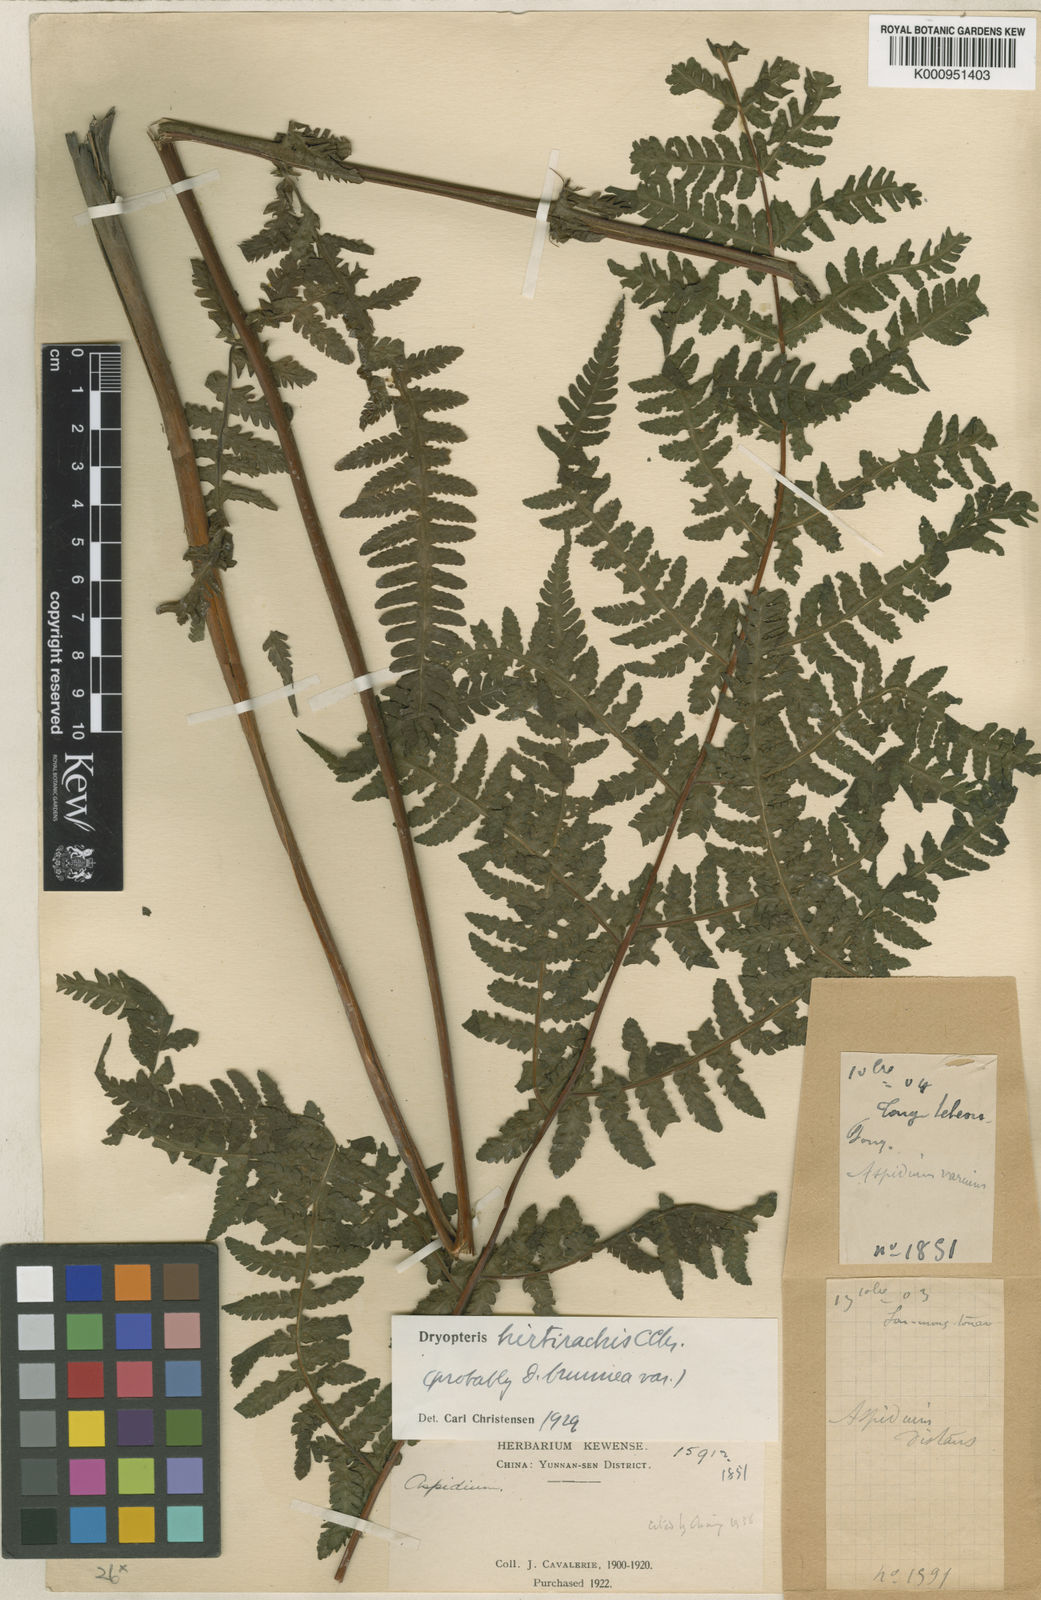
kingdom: Plantae
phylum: Tracheophyta
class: Polypodiopsida
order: Polypodiales
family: Thelypteridaceae
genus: Pseudophegopteris
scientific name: Pseudophegopteris hirtirachis
